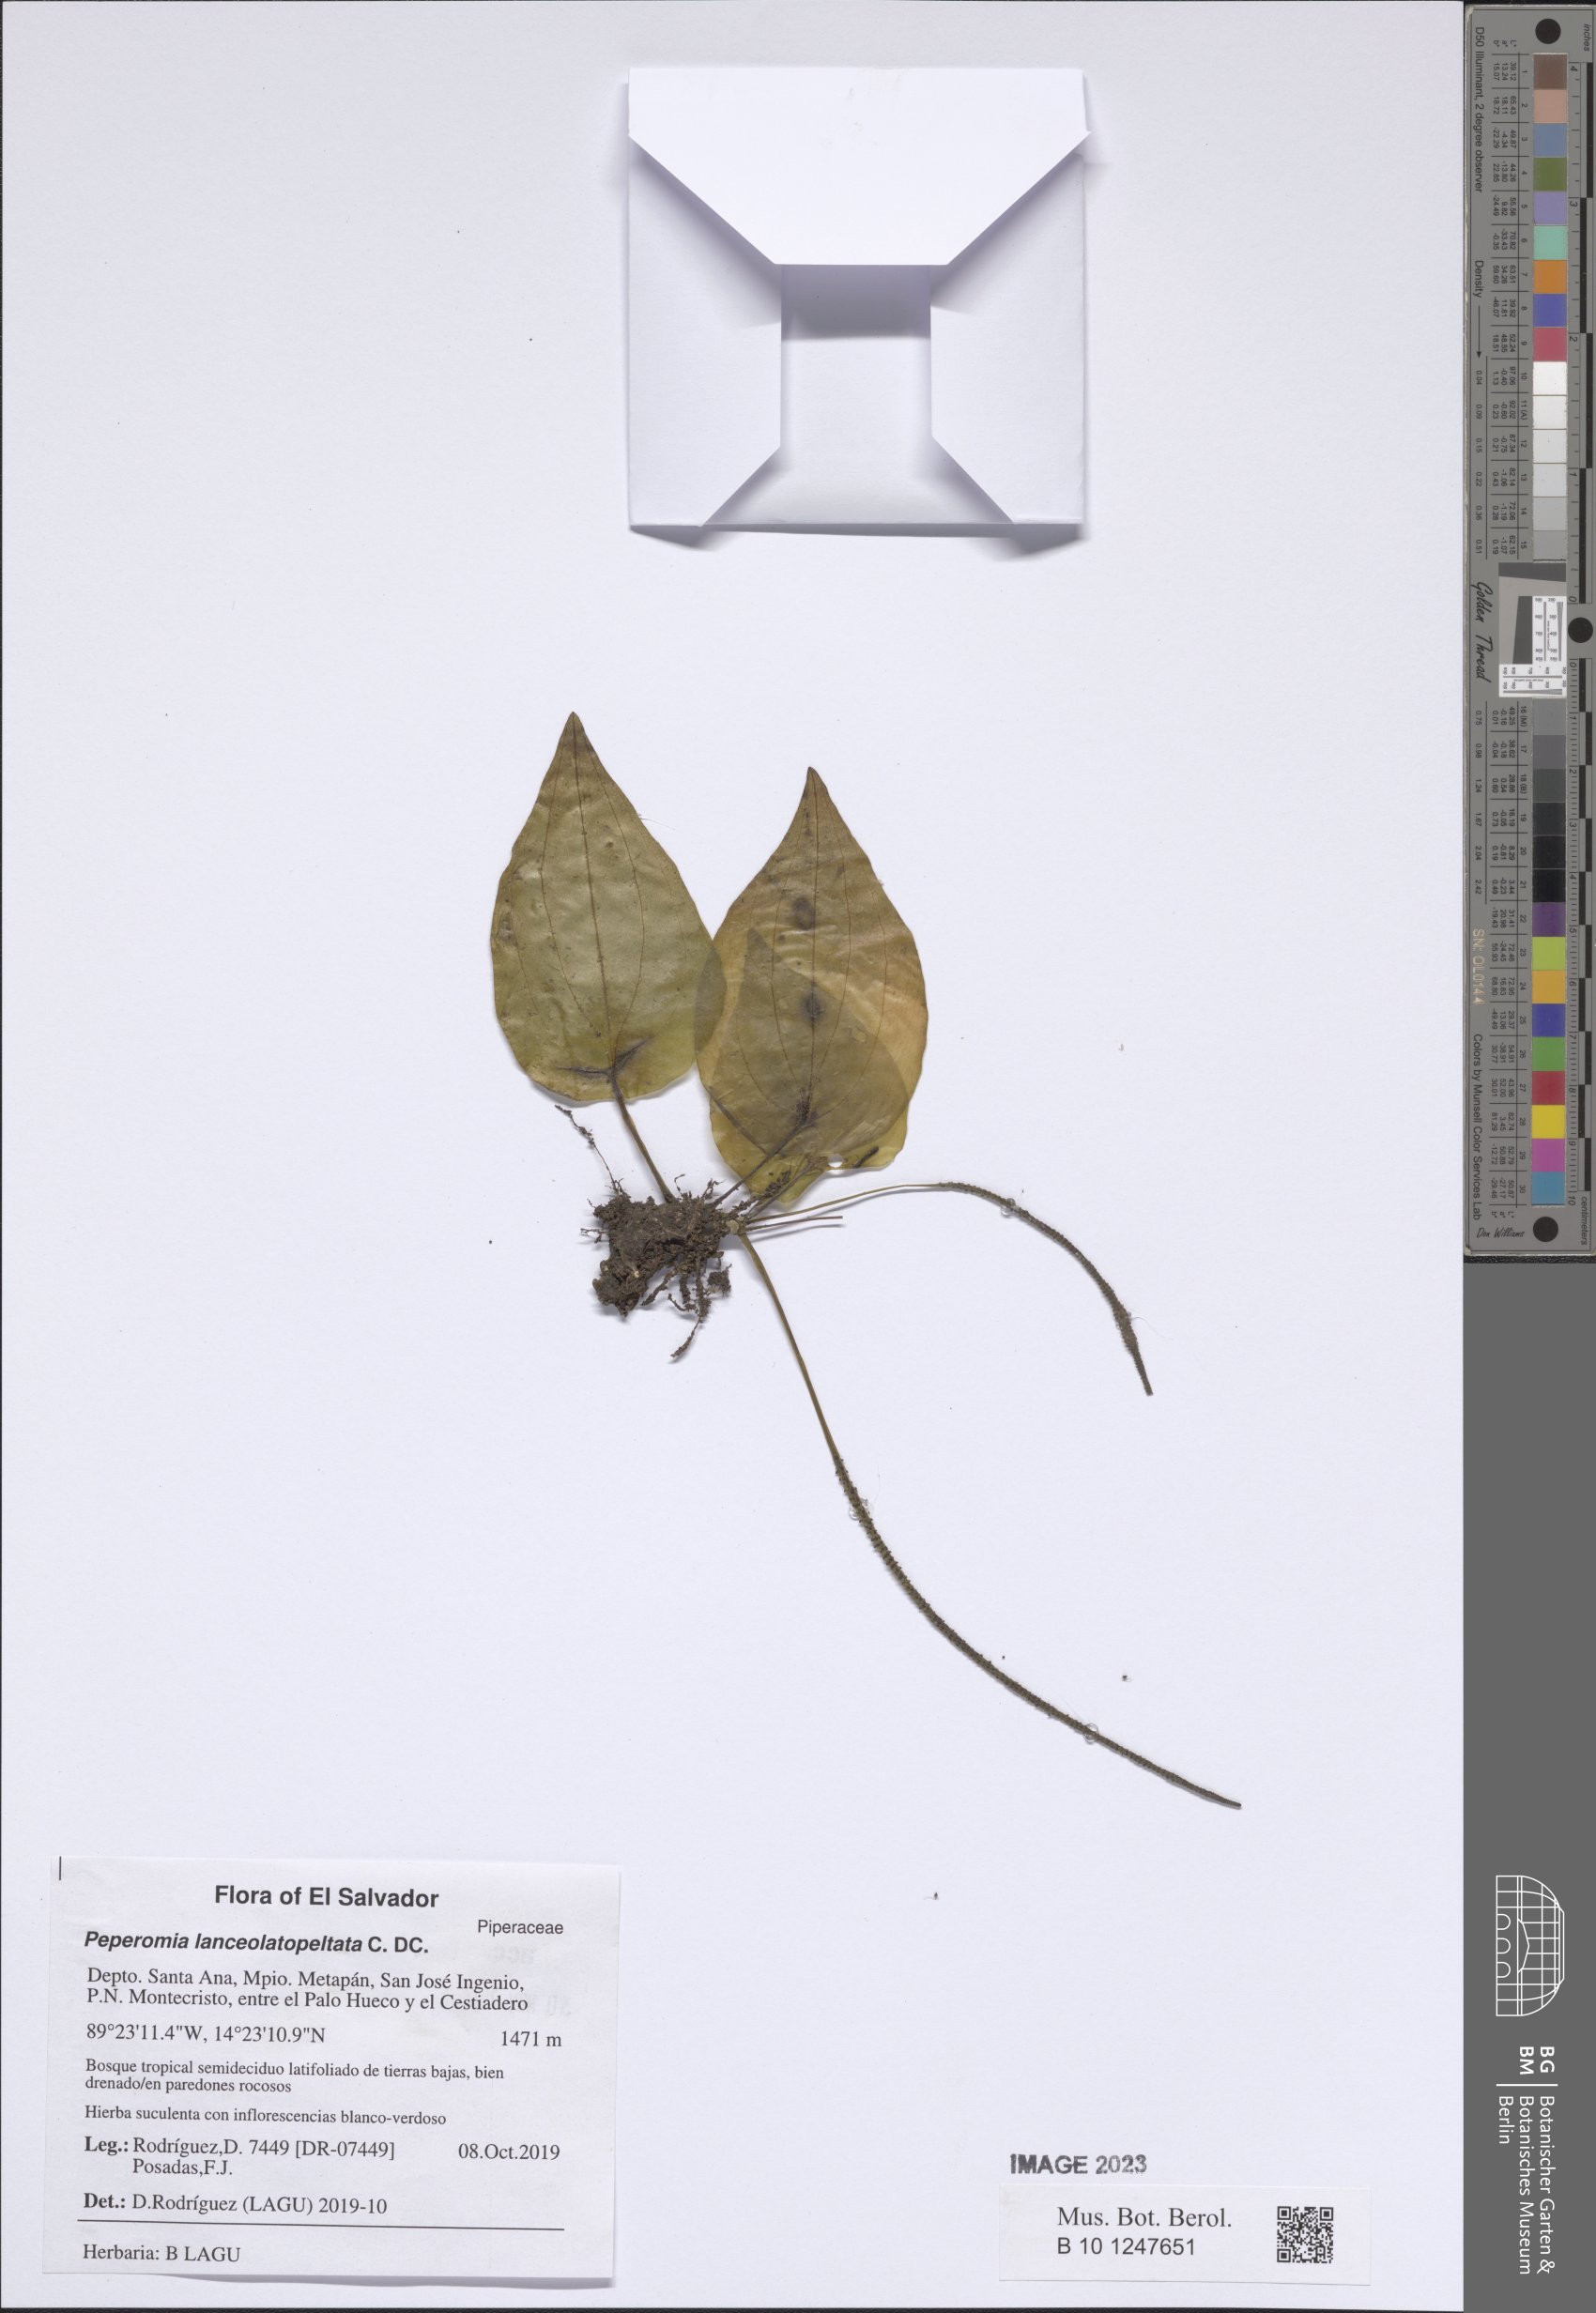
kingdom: Plantae
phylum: Tracheophyta
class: Magnoliopsida
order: Piperales
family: Piperaceae
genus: Peperomia
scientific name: Peperomia lanceolatopeltata
